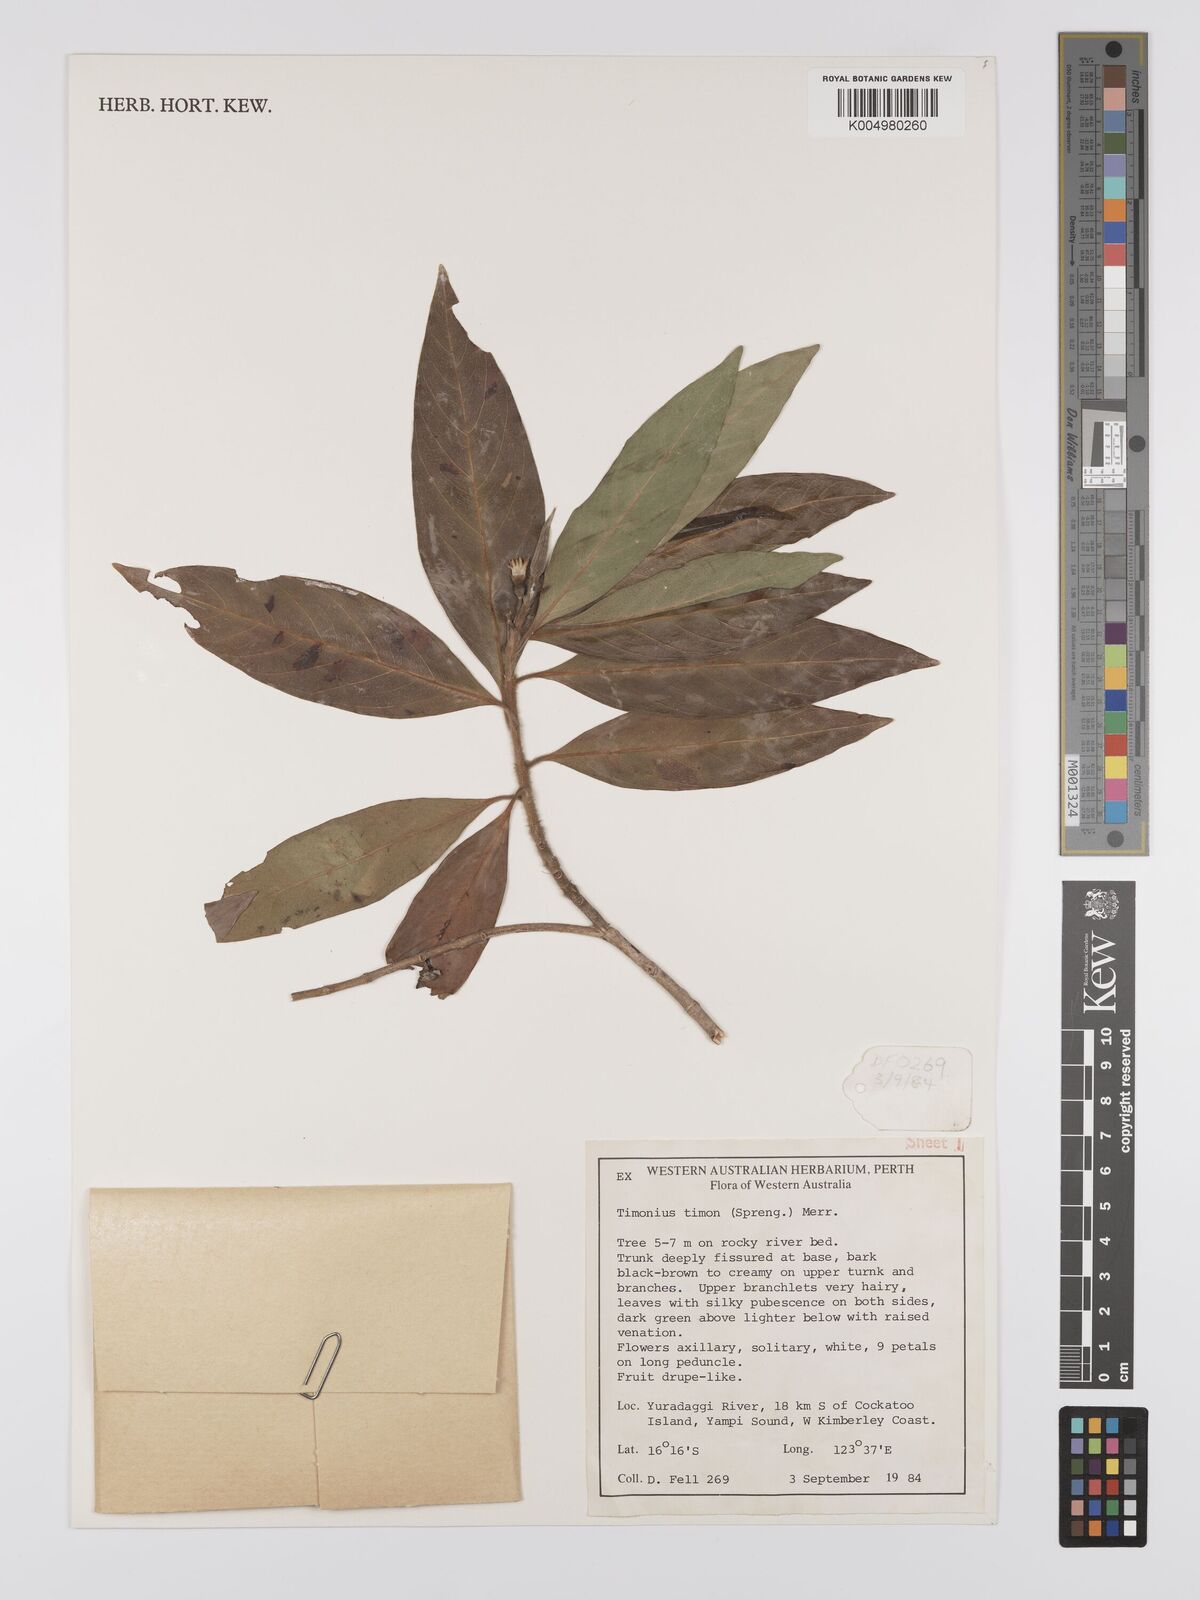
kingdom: Plantae
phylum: Tracheophyta
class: Magnoliopsida
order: Gentianales
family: Rubiaceae
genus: Timonius
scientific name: Timonius timon
